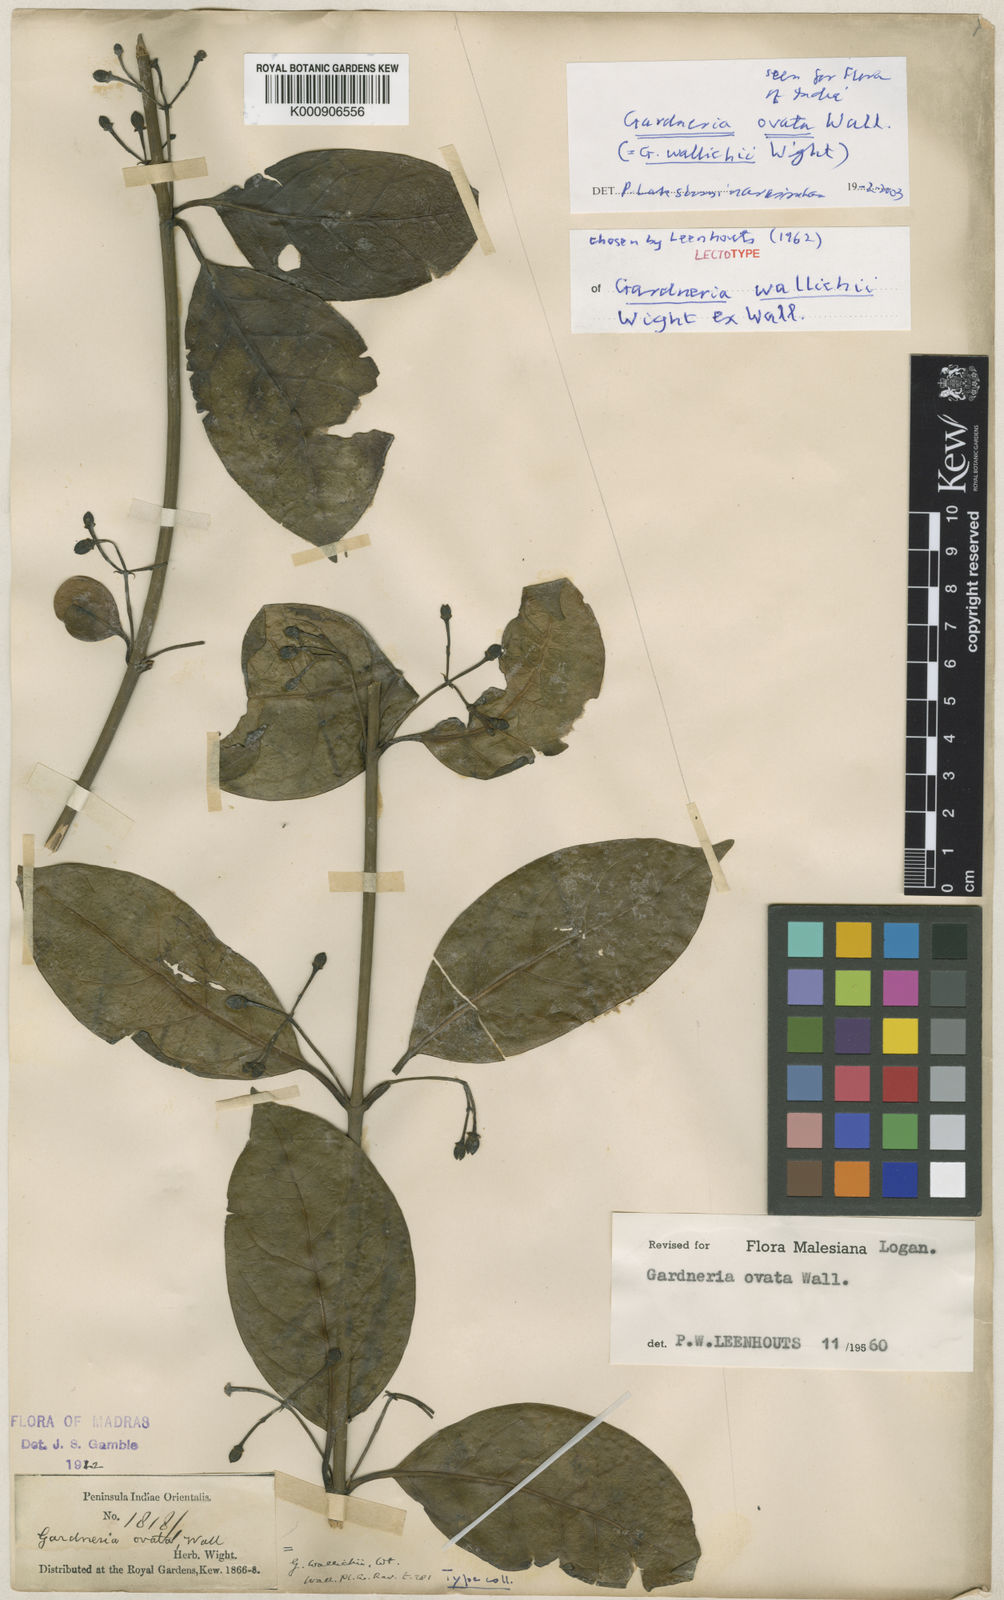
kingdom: Plantae
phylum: Tracheophyta
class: Magnoliopsida
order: Gentianales
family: Loganiaceae
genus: Gardneria
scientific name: Gardneria ovata
